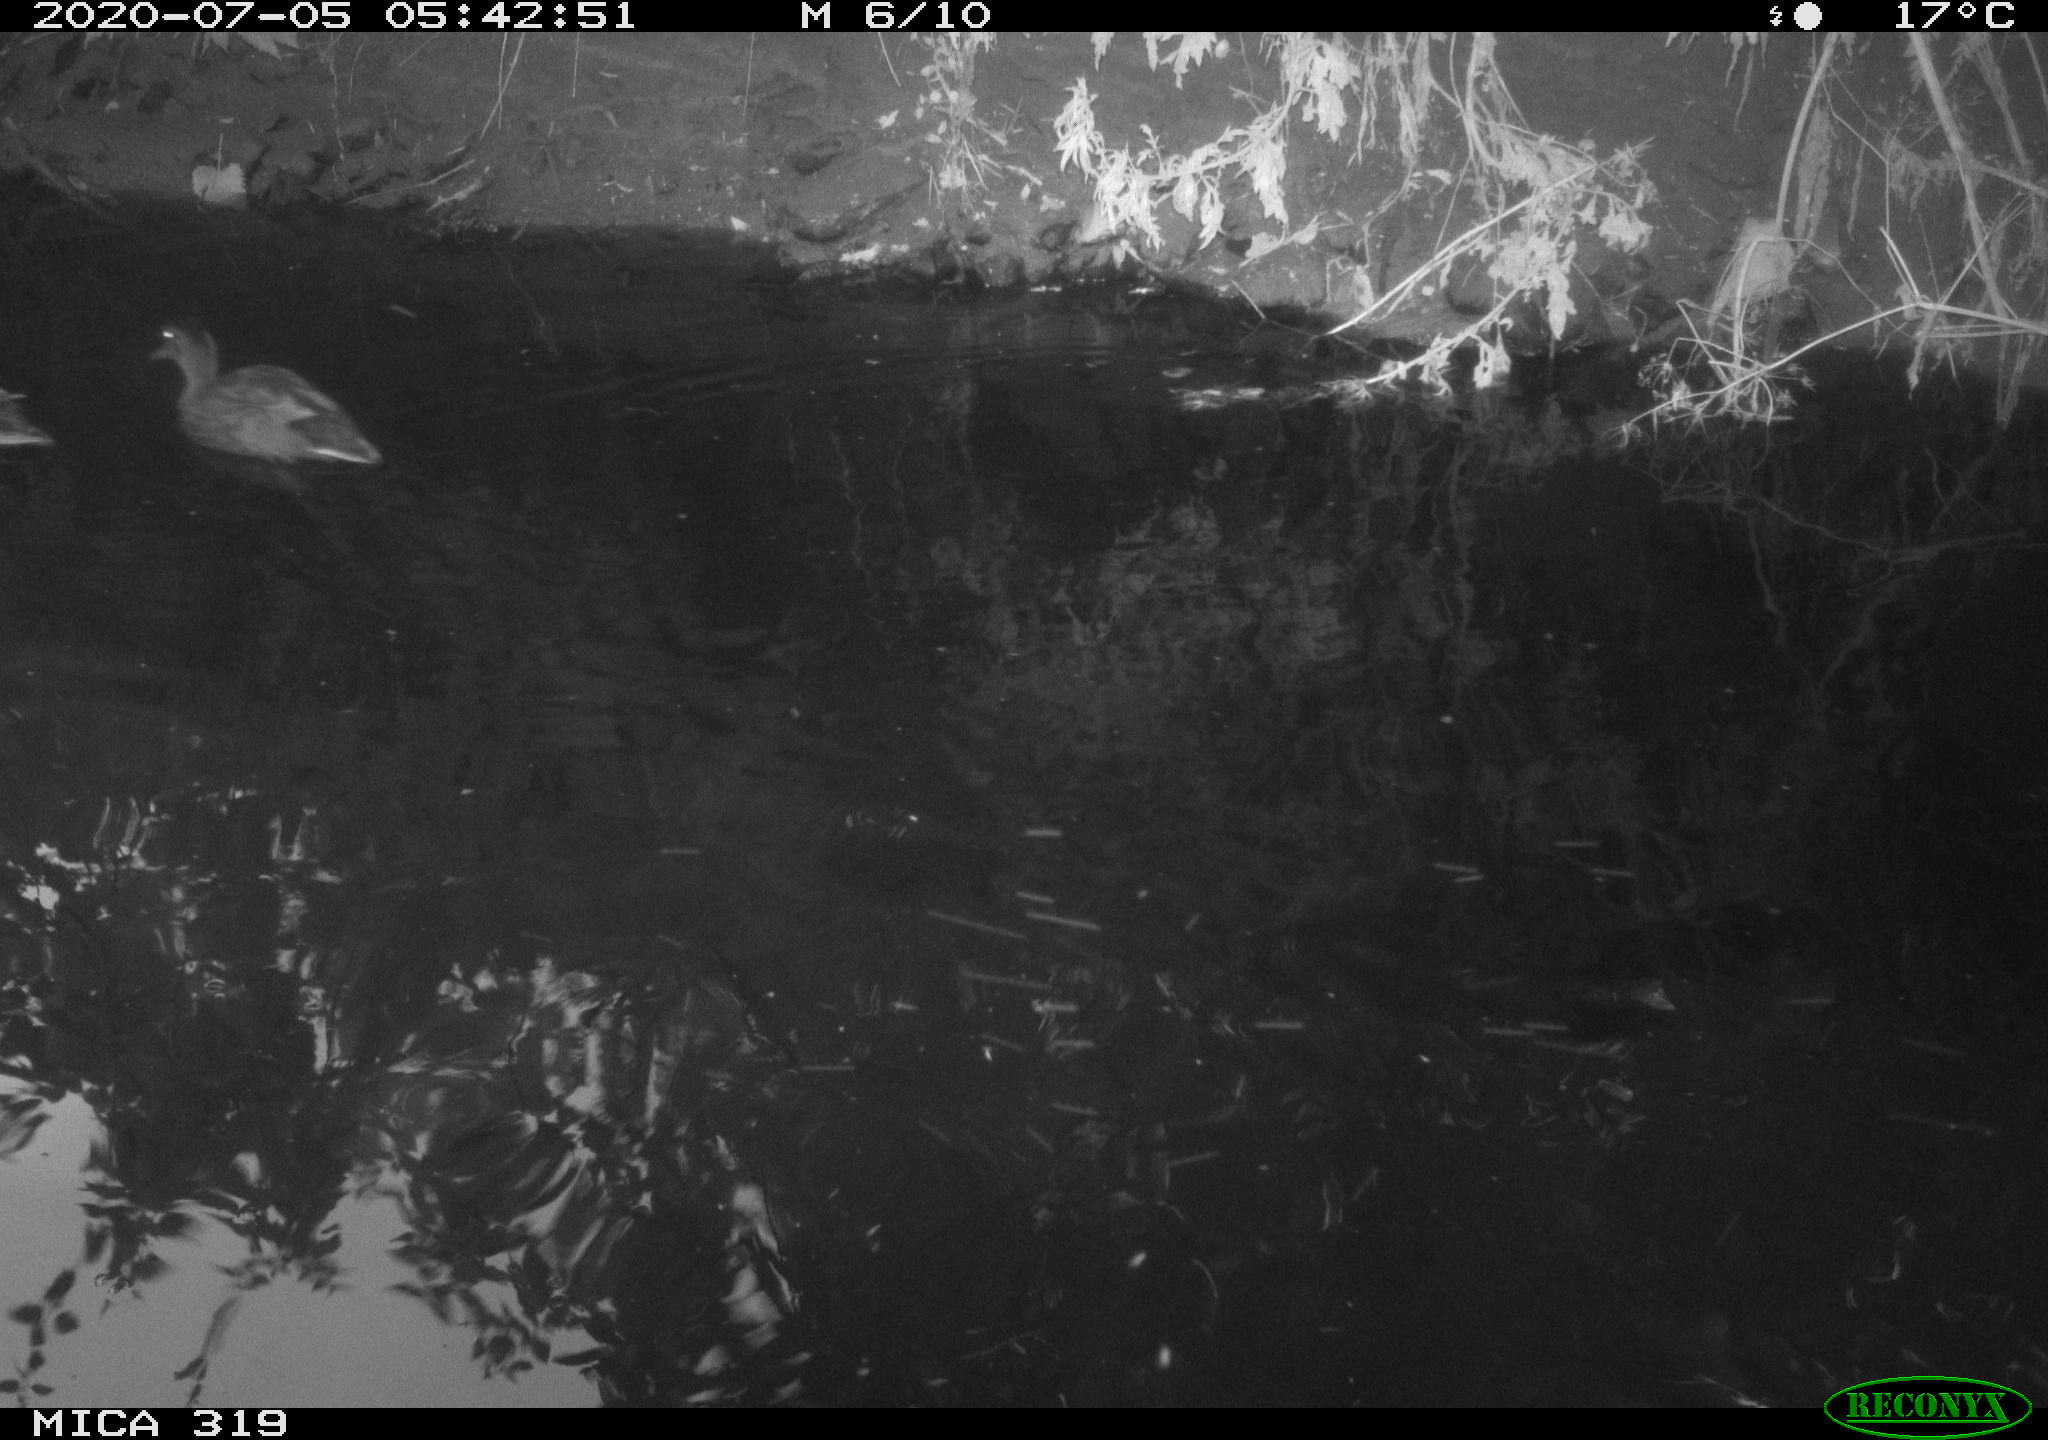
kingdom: Animalia
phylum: Chordata
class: Aves
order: Anseriformes
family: Anatidae
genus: Anas
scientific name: Anas platyrhynchos
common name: Mallard
